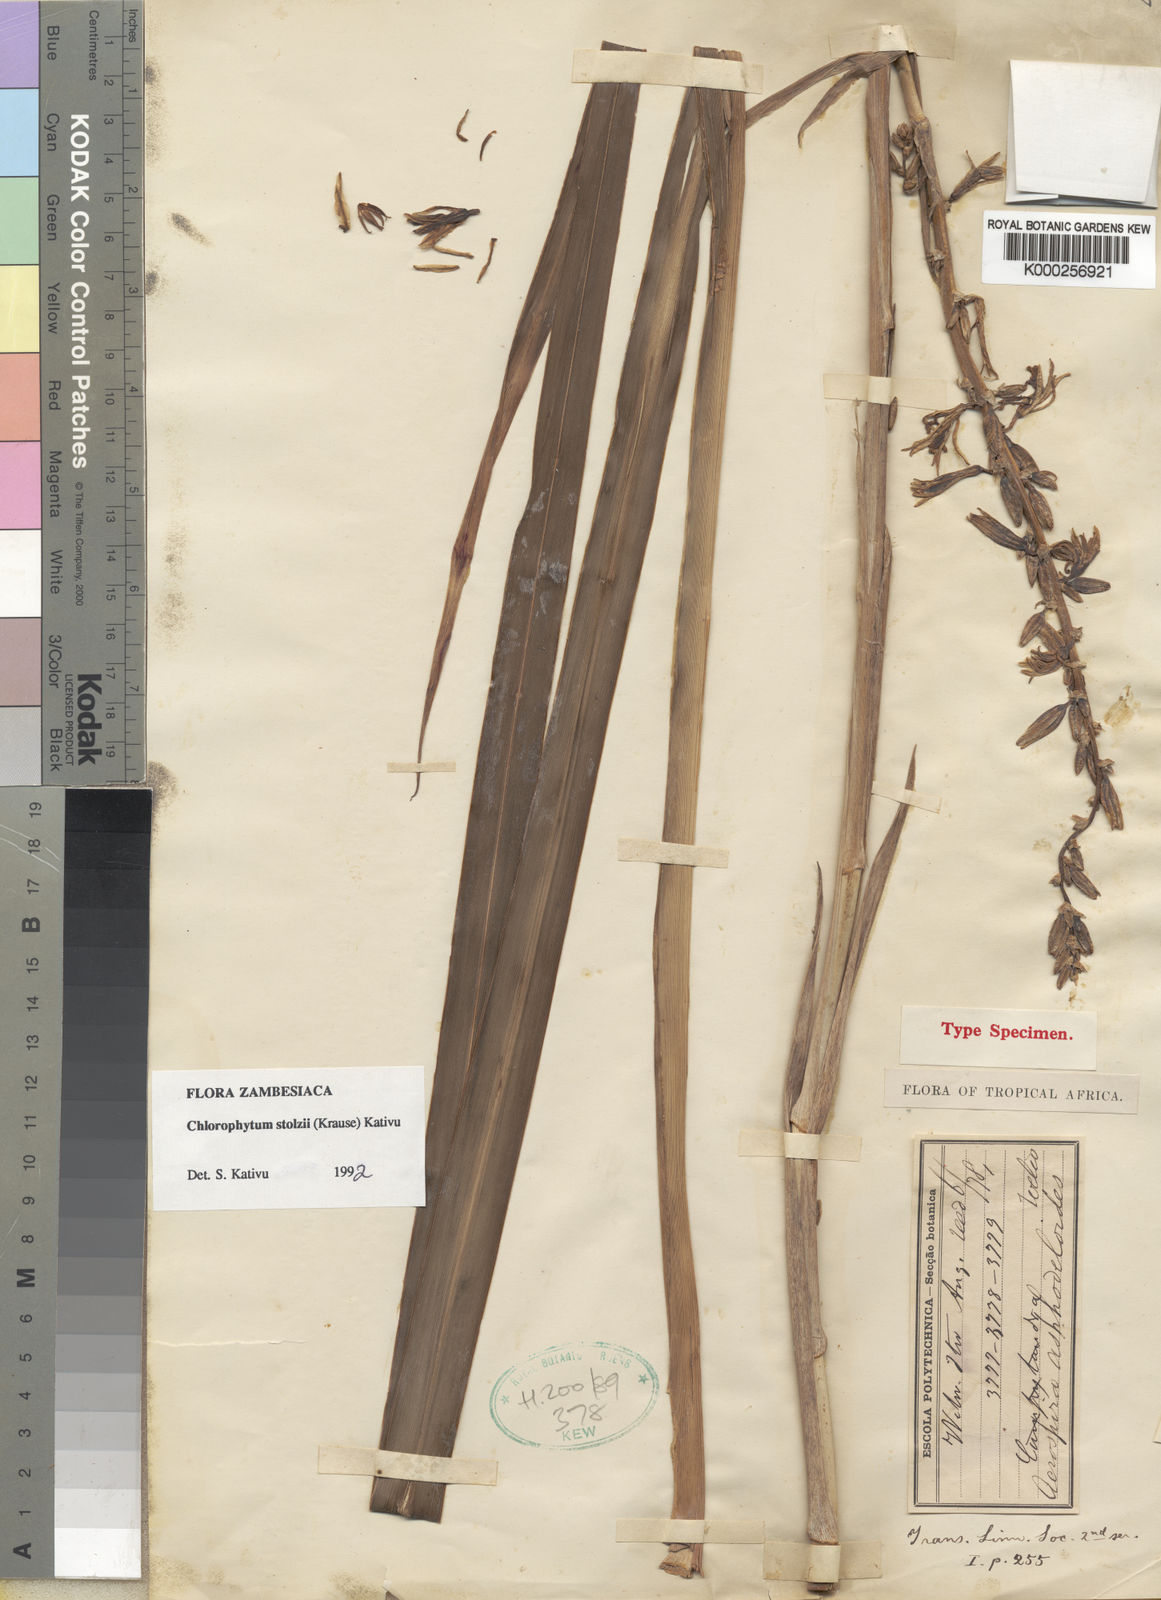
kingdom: Plantae
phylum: Tracheophyta
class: Liliopsida
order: Asparagales
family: Asparagaceae
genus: Chlorophytum
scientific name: Chlorophytum
